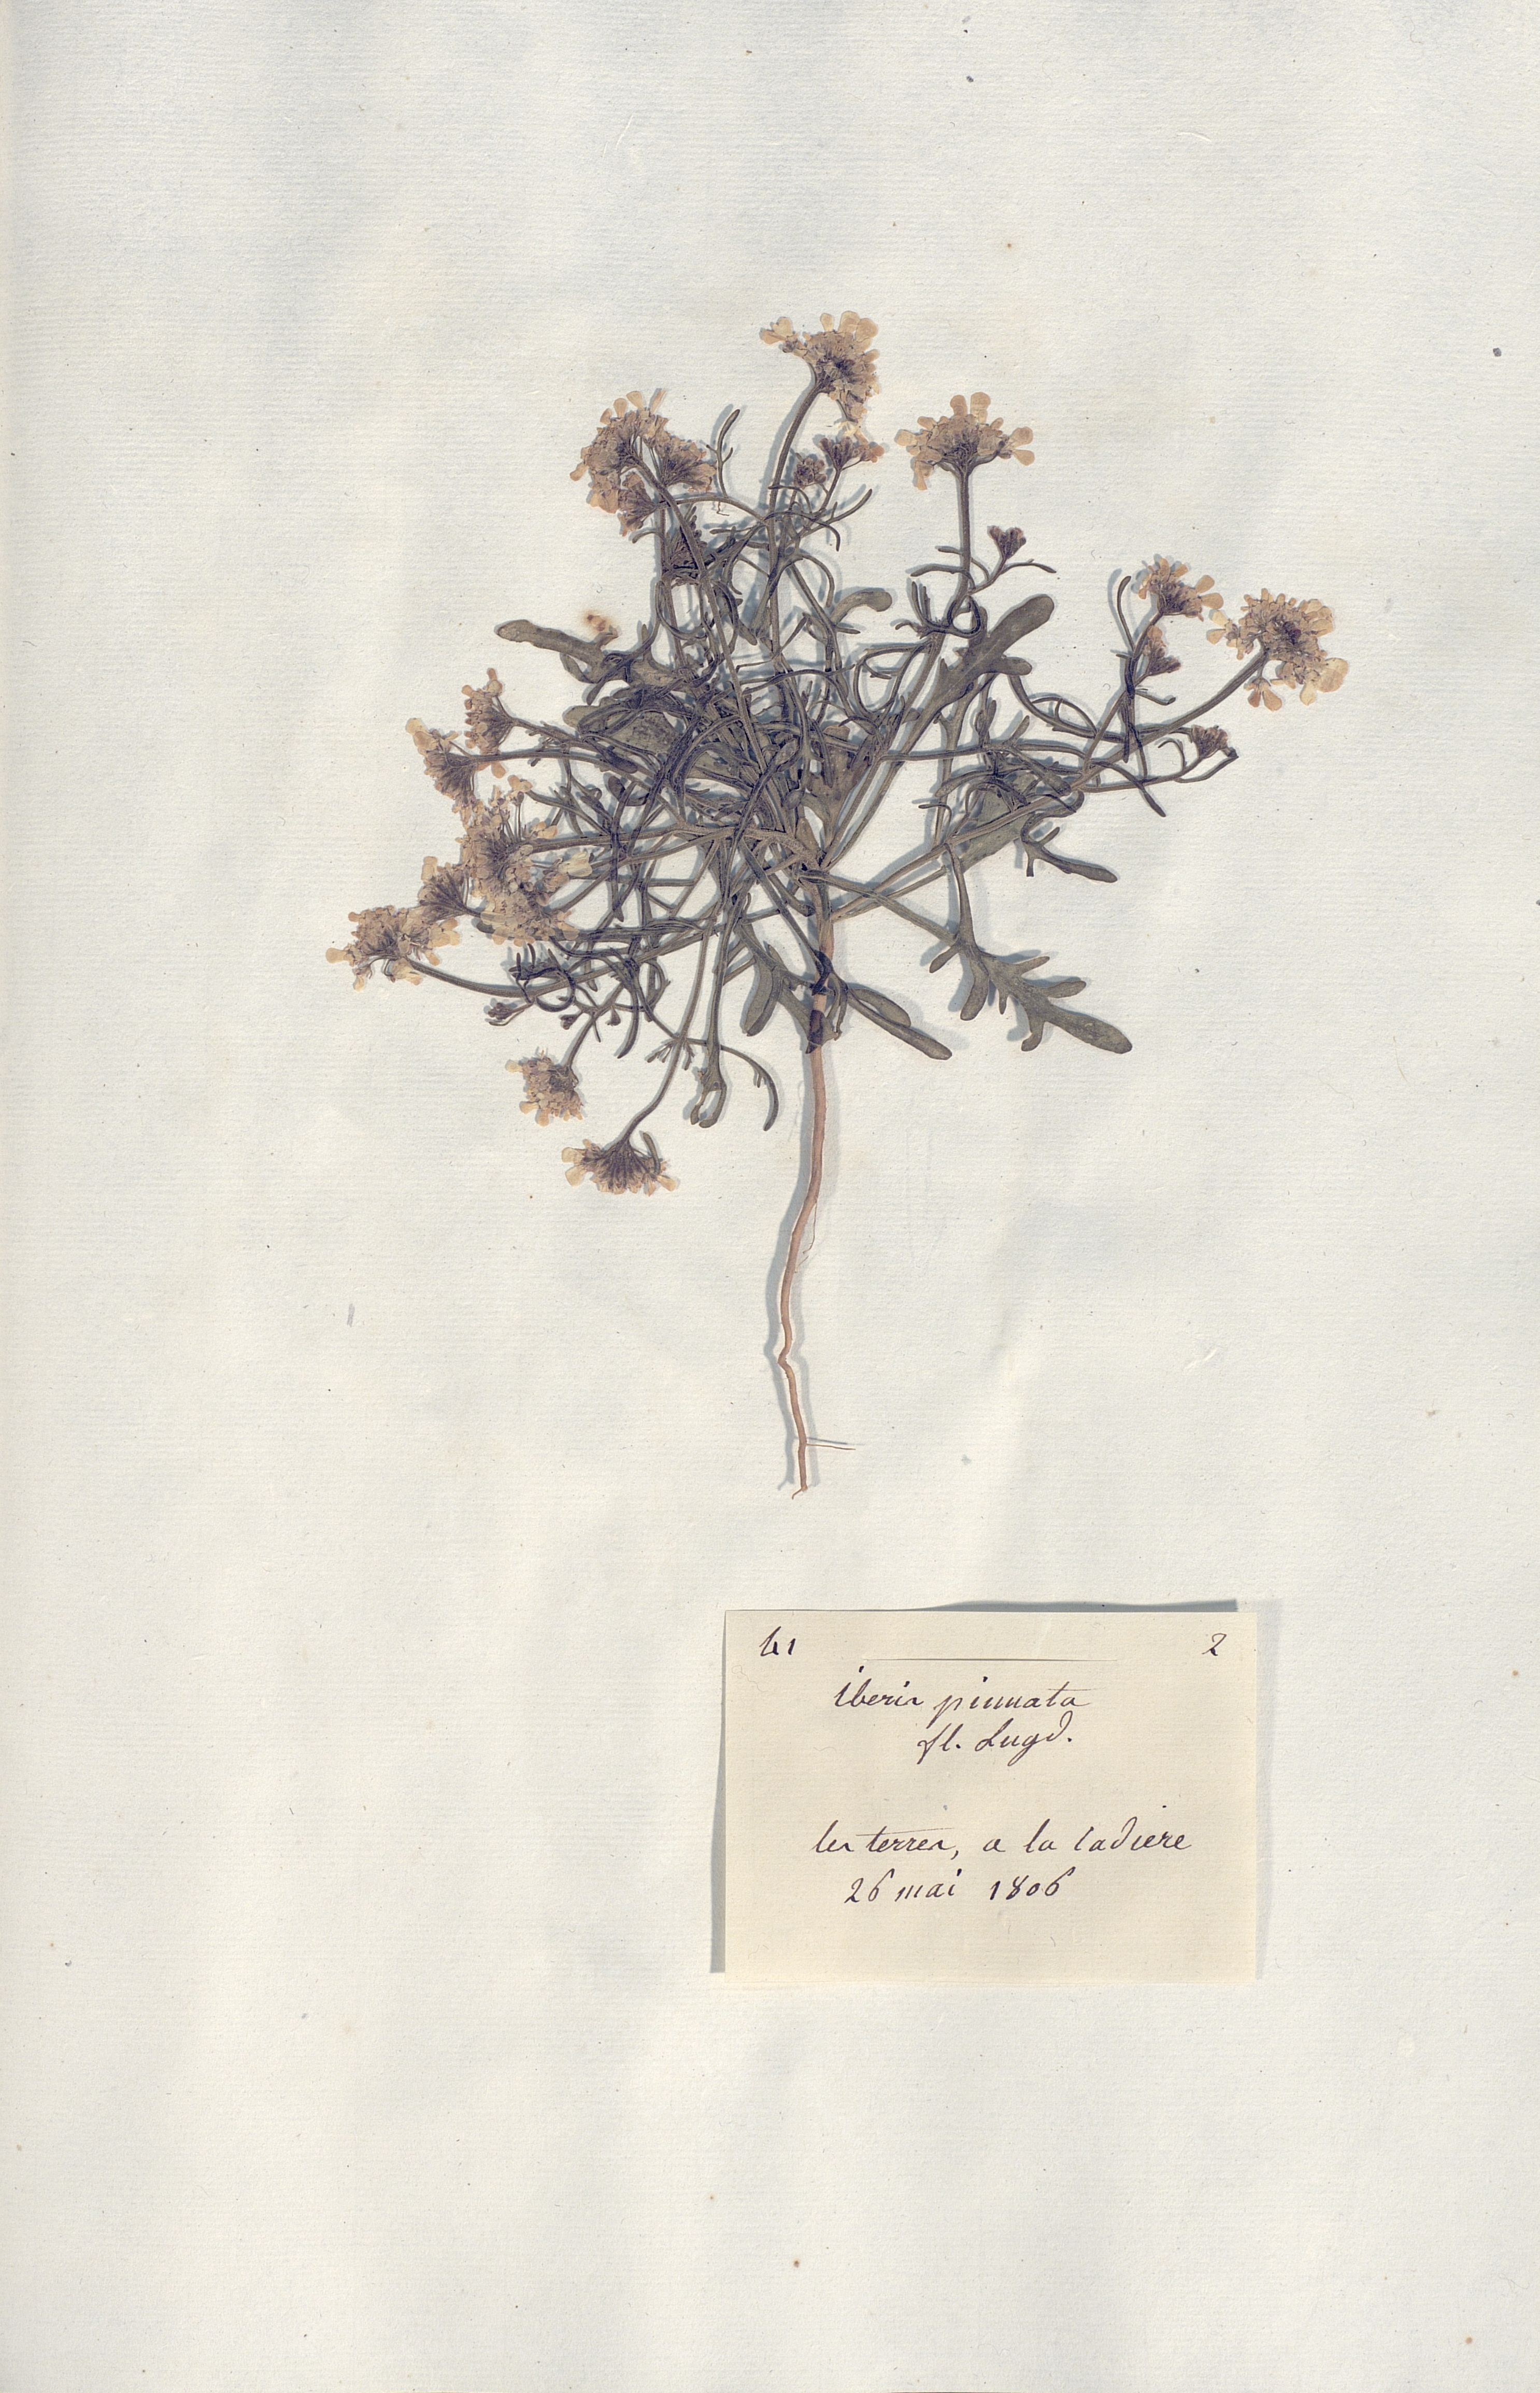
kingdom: Plantae
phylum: Tracheophyta
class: Magnoliopsida
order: Brassicales
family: Brassicaceae
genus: Iberis
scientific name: Iberis pinnata
